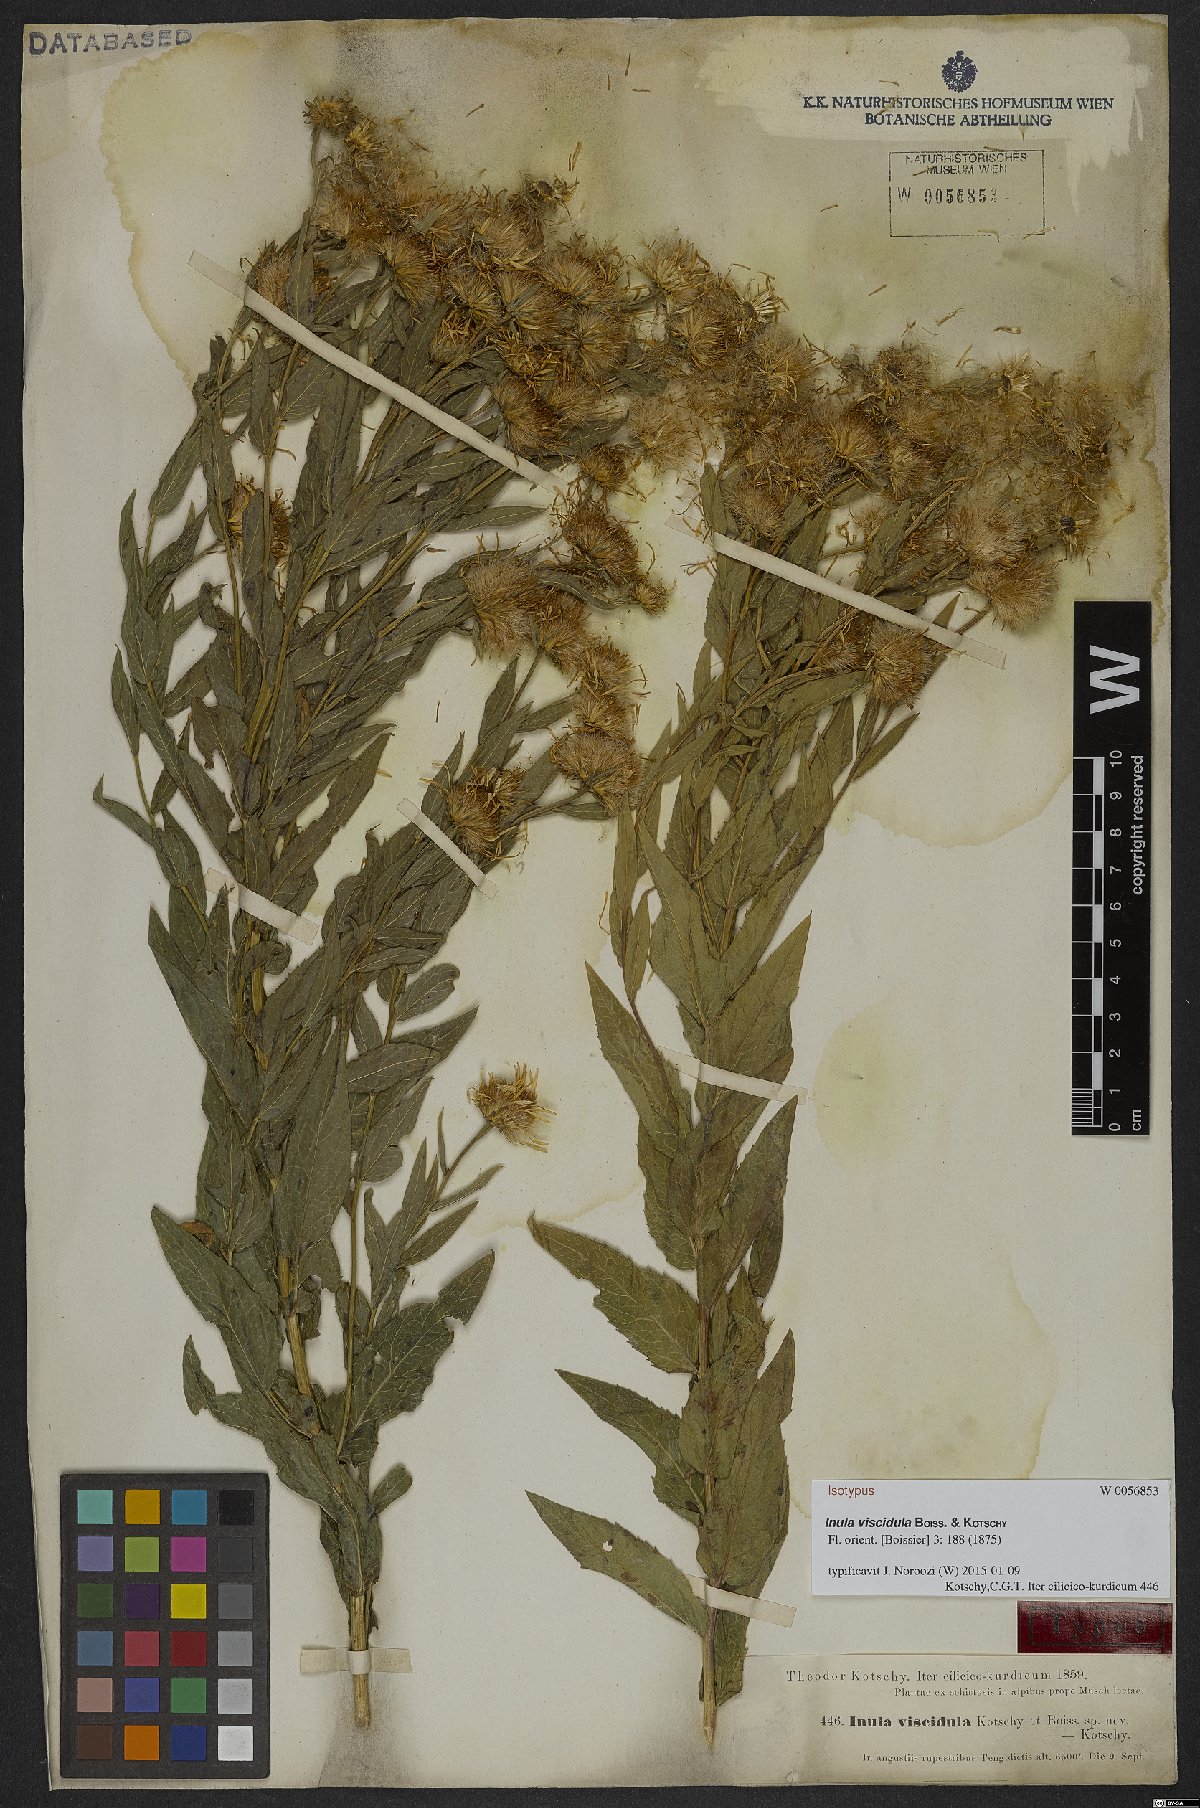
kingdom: Plantae
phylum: Tracheophyta
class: Magnoliopsida
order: Asterales
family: Asteraceae
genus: Inula
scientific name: Inula viscidula
